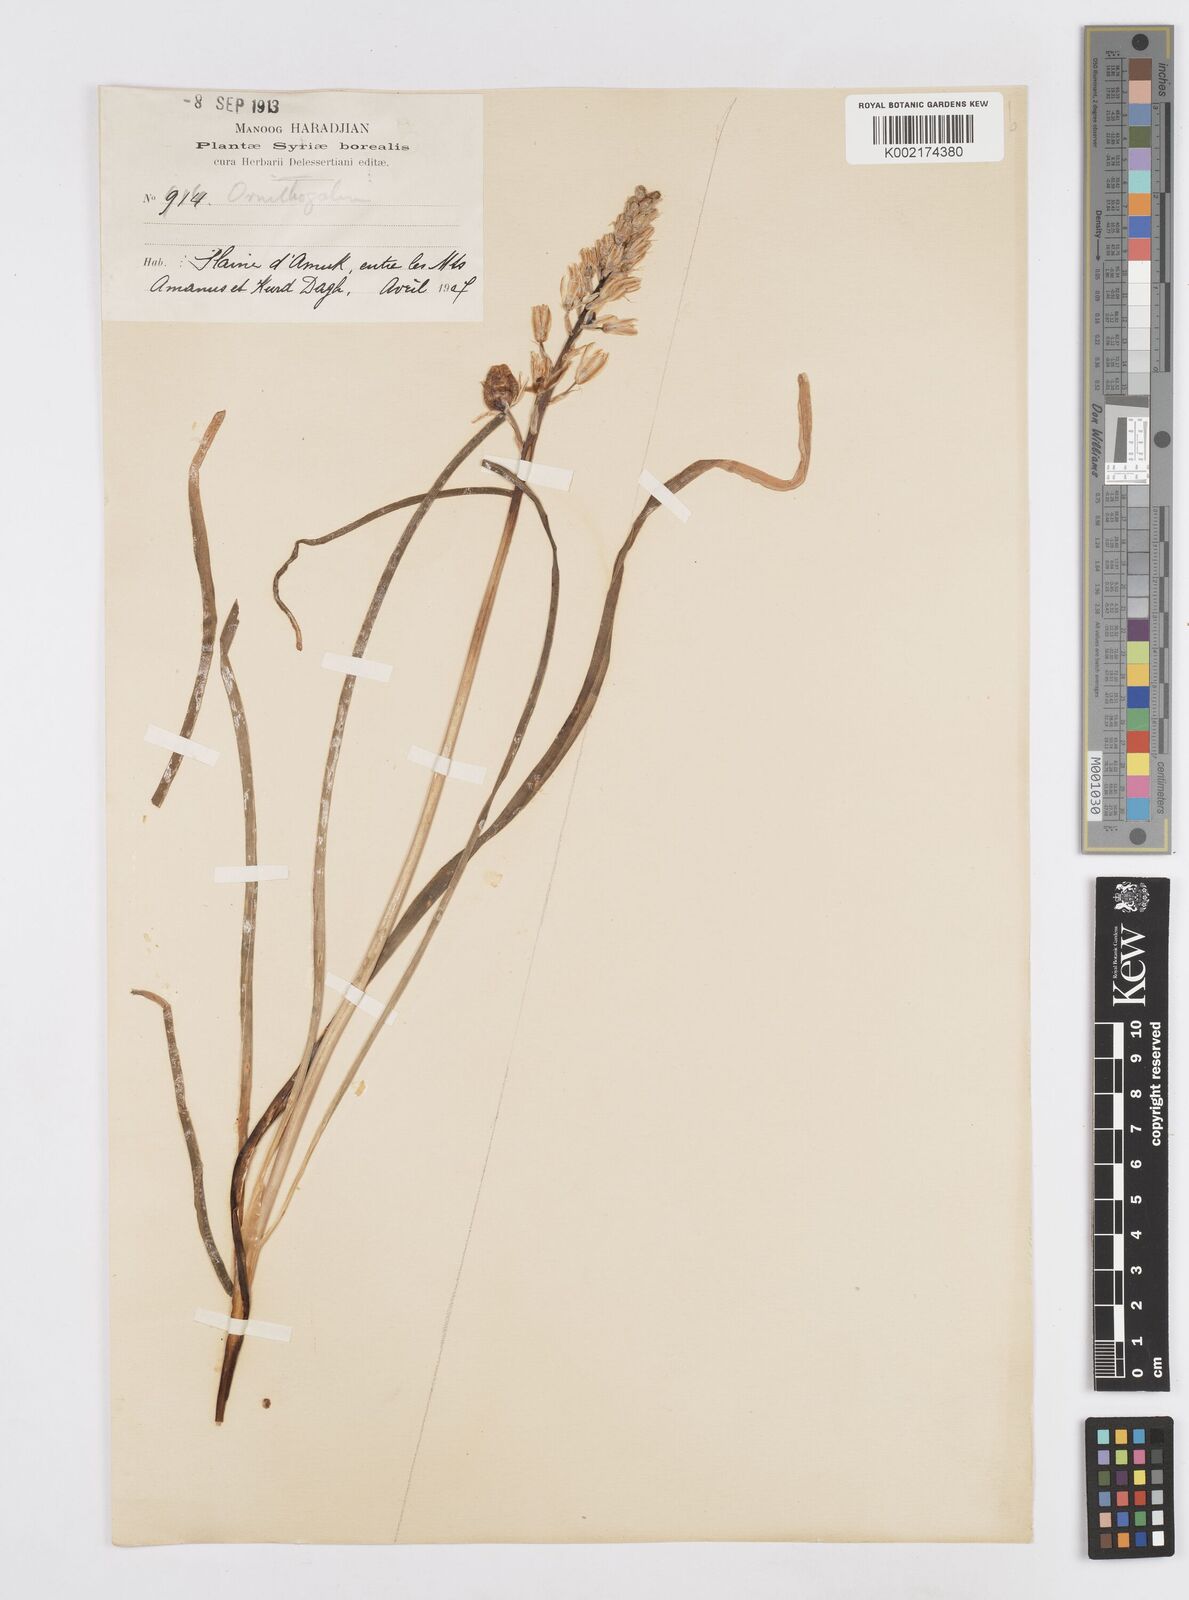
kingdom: Plantae
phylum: Tracheophyta
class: Liliopsida
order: Asparagales
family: Asparagaceae
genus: Ornithogalum
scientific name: Ornithogalum narbonense
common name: Bath-asparagus
